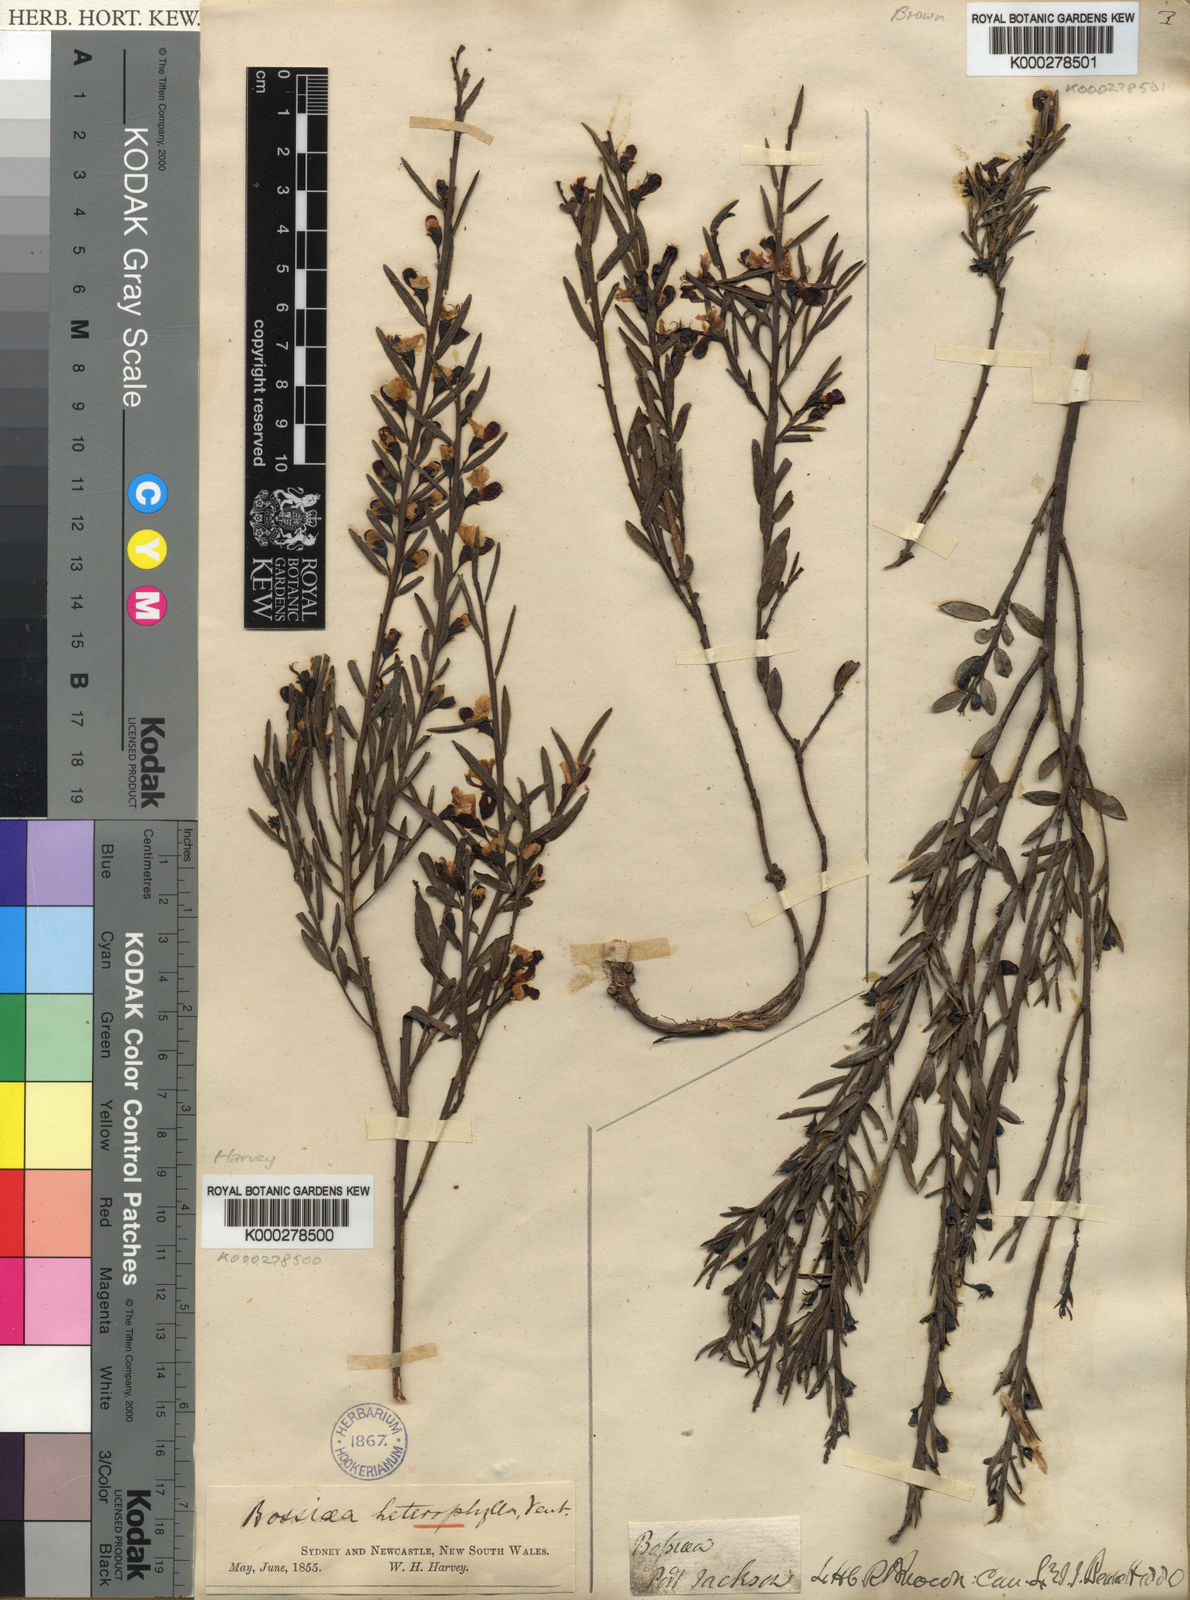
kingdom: Plantae
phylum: Tracheophyta
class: Magnoliopsida
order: Fabales
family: Fabaceae
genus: Bossiaea
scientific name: Bossiaea heterophylla
